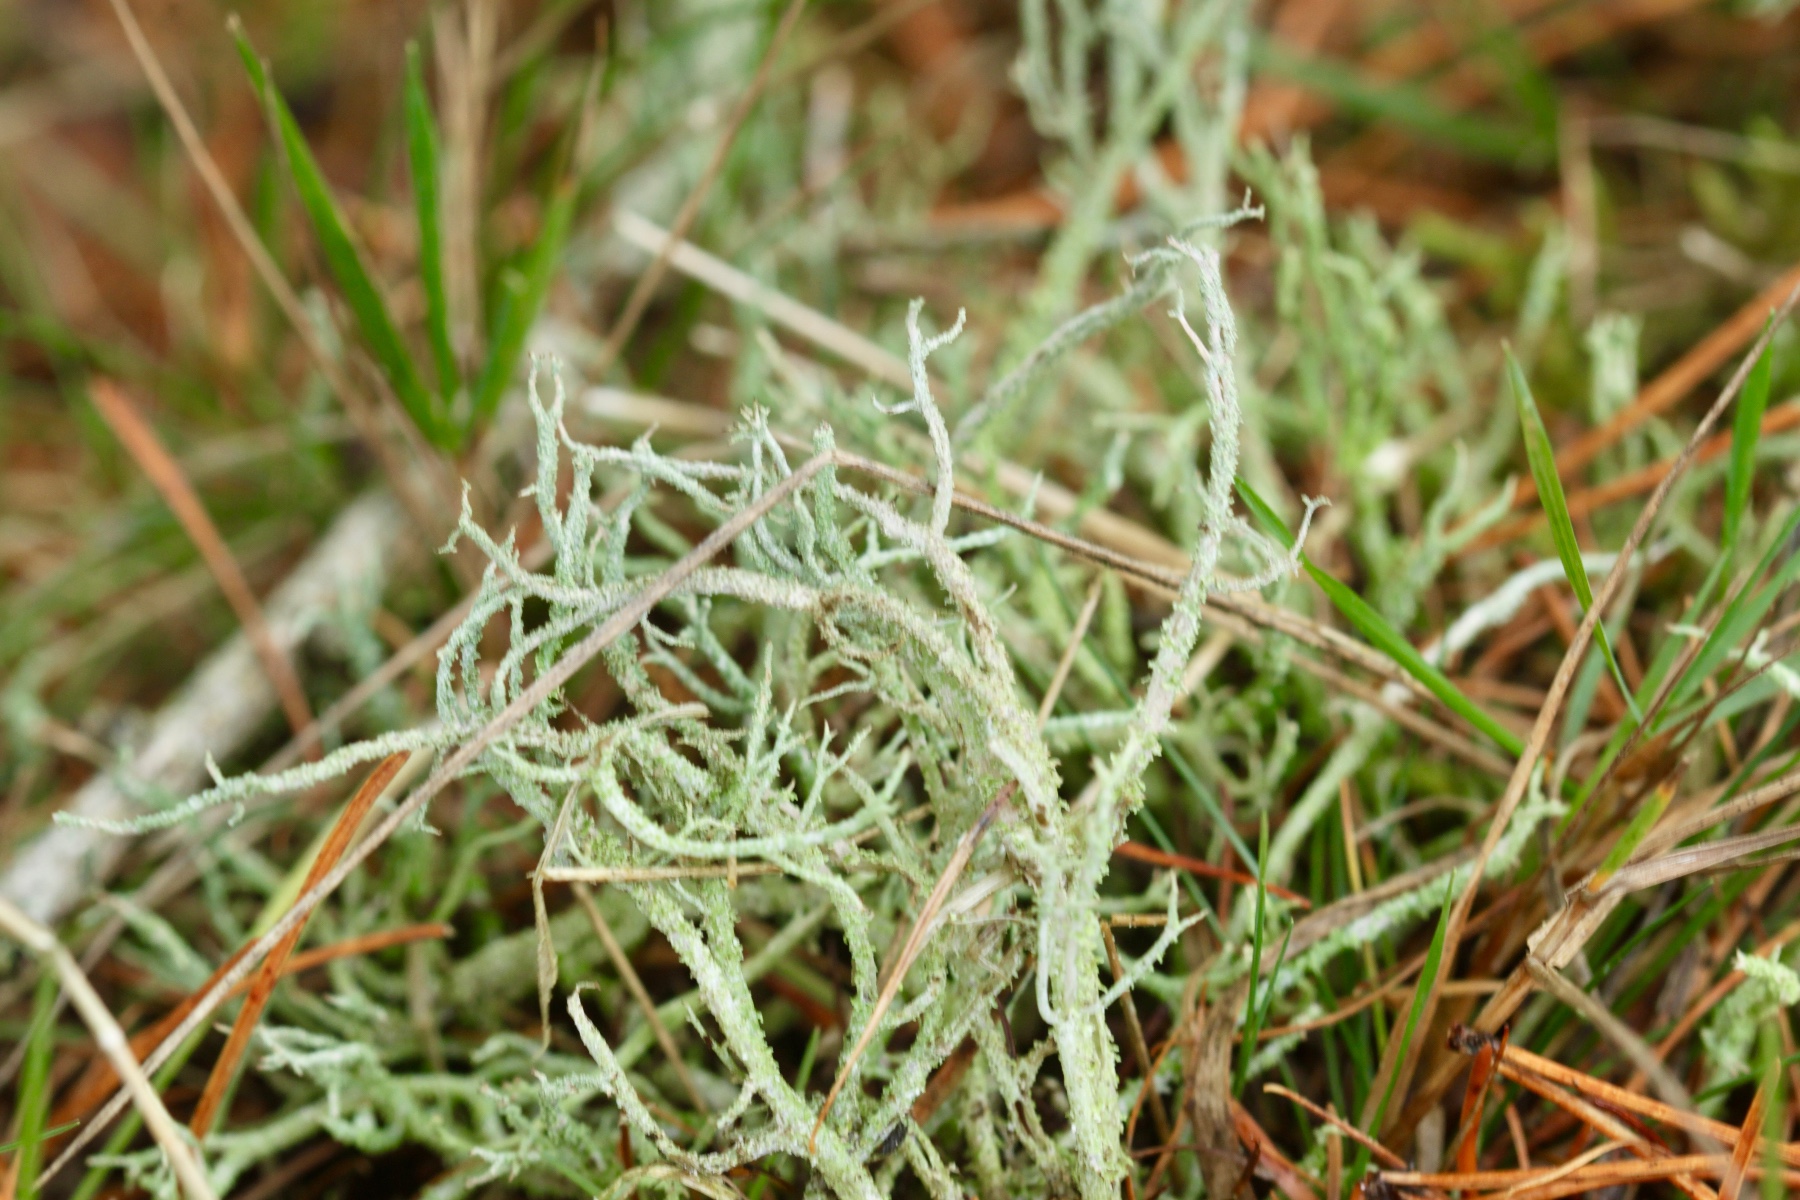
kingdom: Fungi
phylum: Ascomycota
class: Lecanoromycetes
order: Lecanorales
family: Cladoniaceae
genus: Cladonia
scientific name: Cladonia scabriuscula
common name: ru bægerlav
